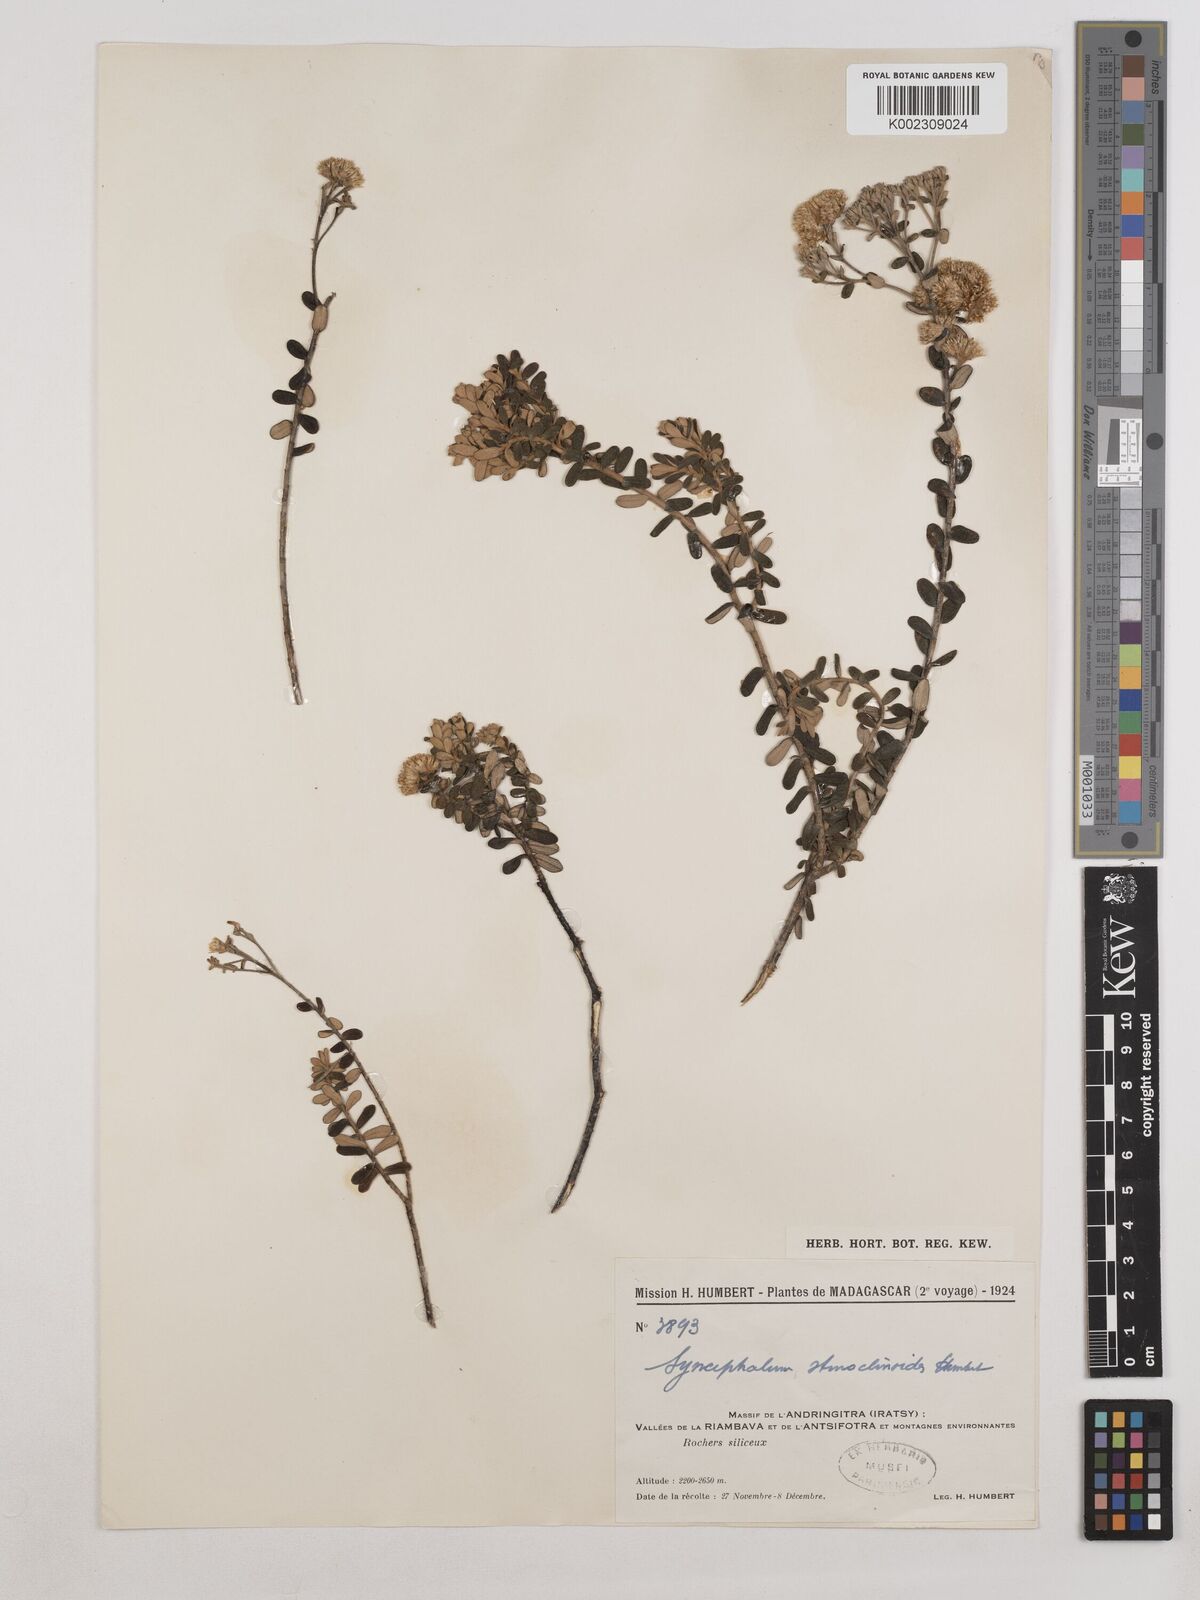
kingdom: Plantae
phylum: Tracheophyta
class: Magnoliopsida
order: Asterales
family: Asteraceae
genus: Syncephalum
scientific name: Syncephalum stenoclinoides
